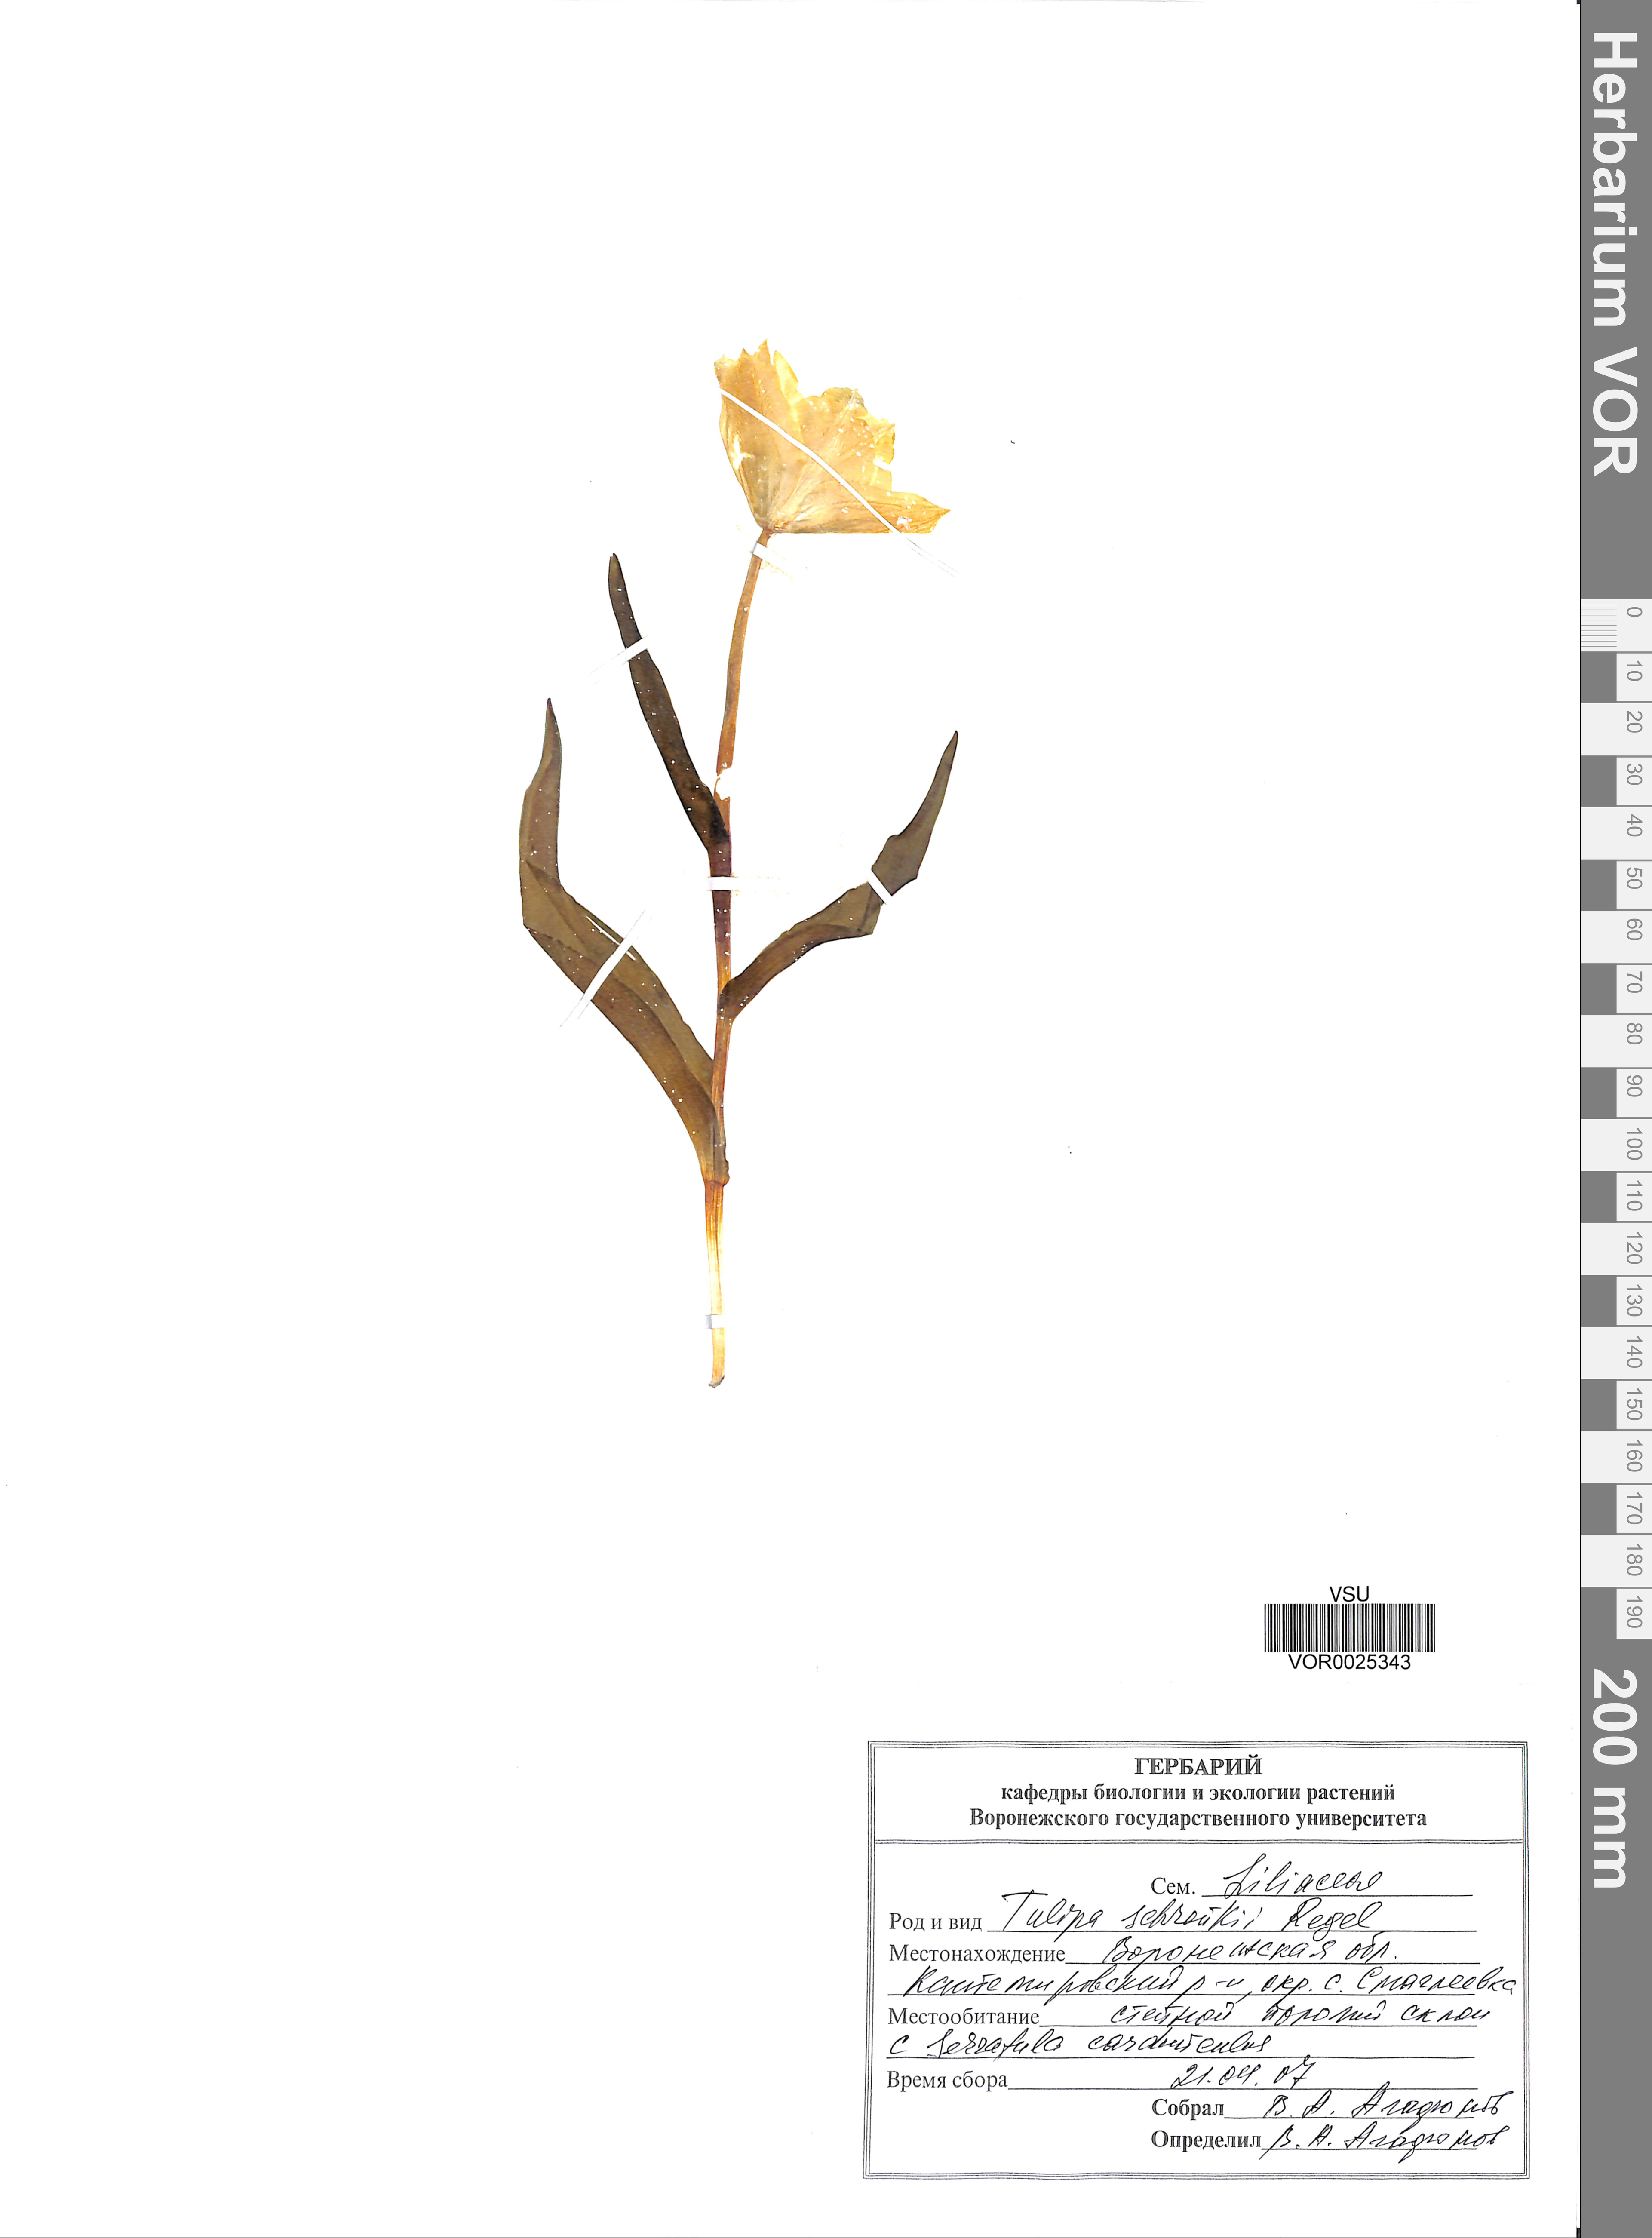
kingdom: Plantae
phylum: Tracheophyta
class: Liliopsida
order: Liliales
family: Liliaceae
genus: Tulipa
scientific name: Tulipa suaveolens
